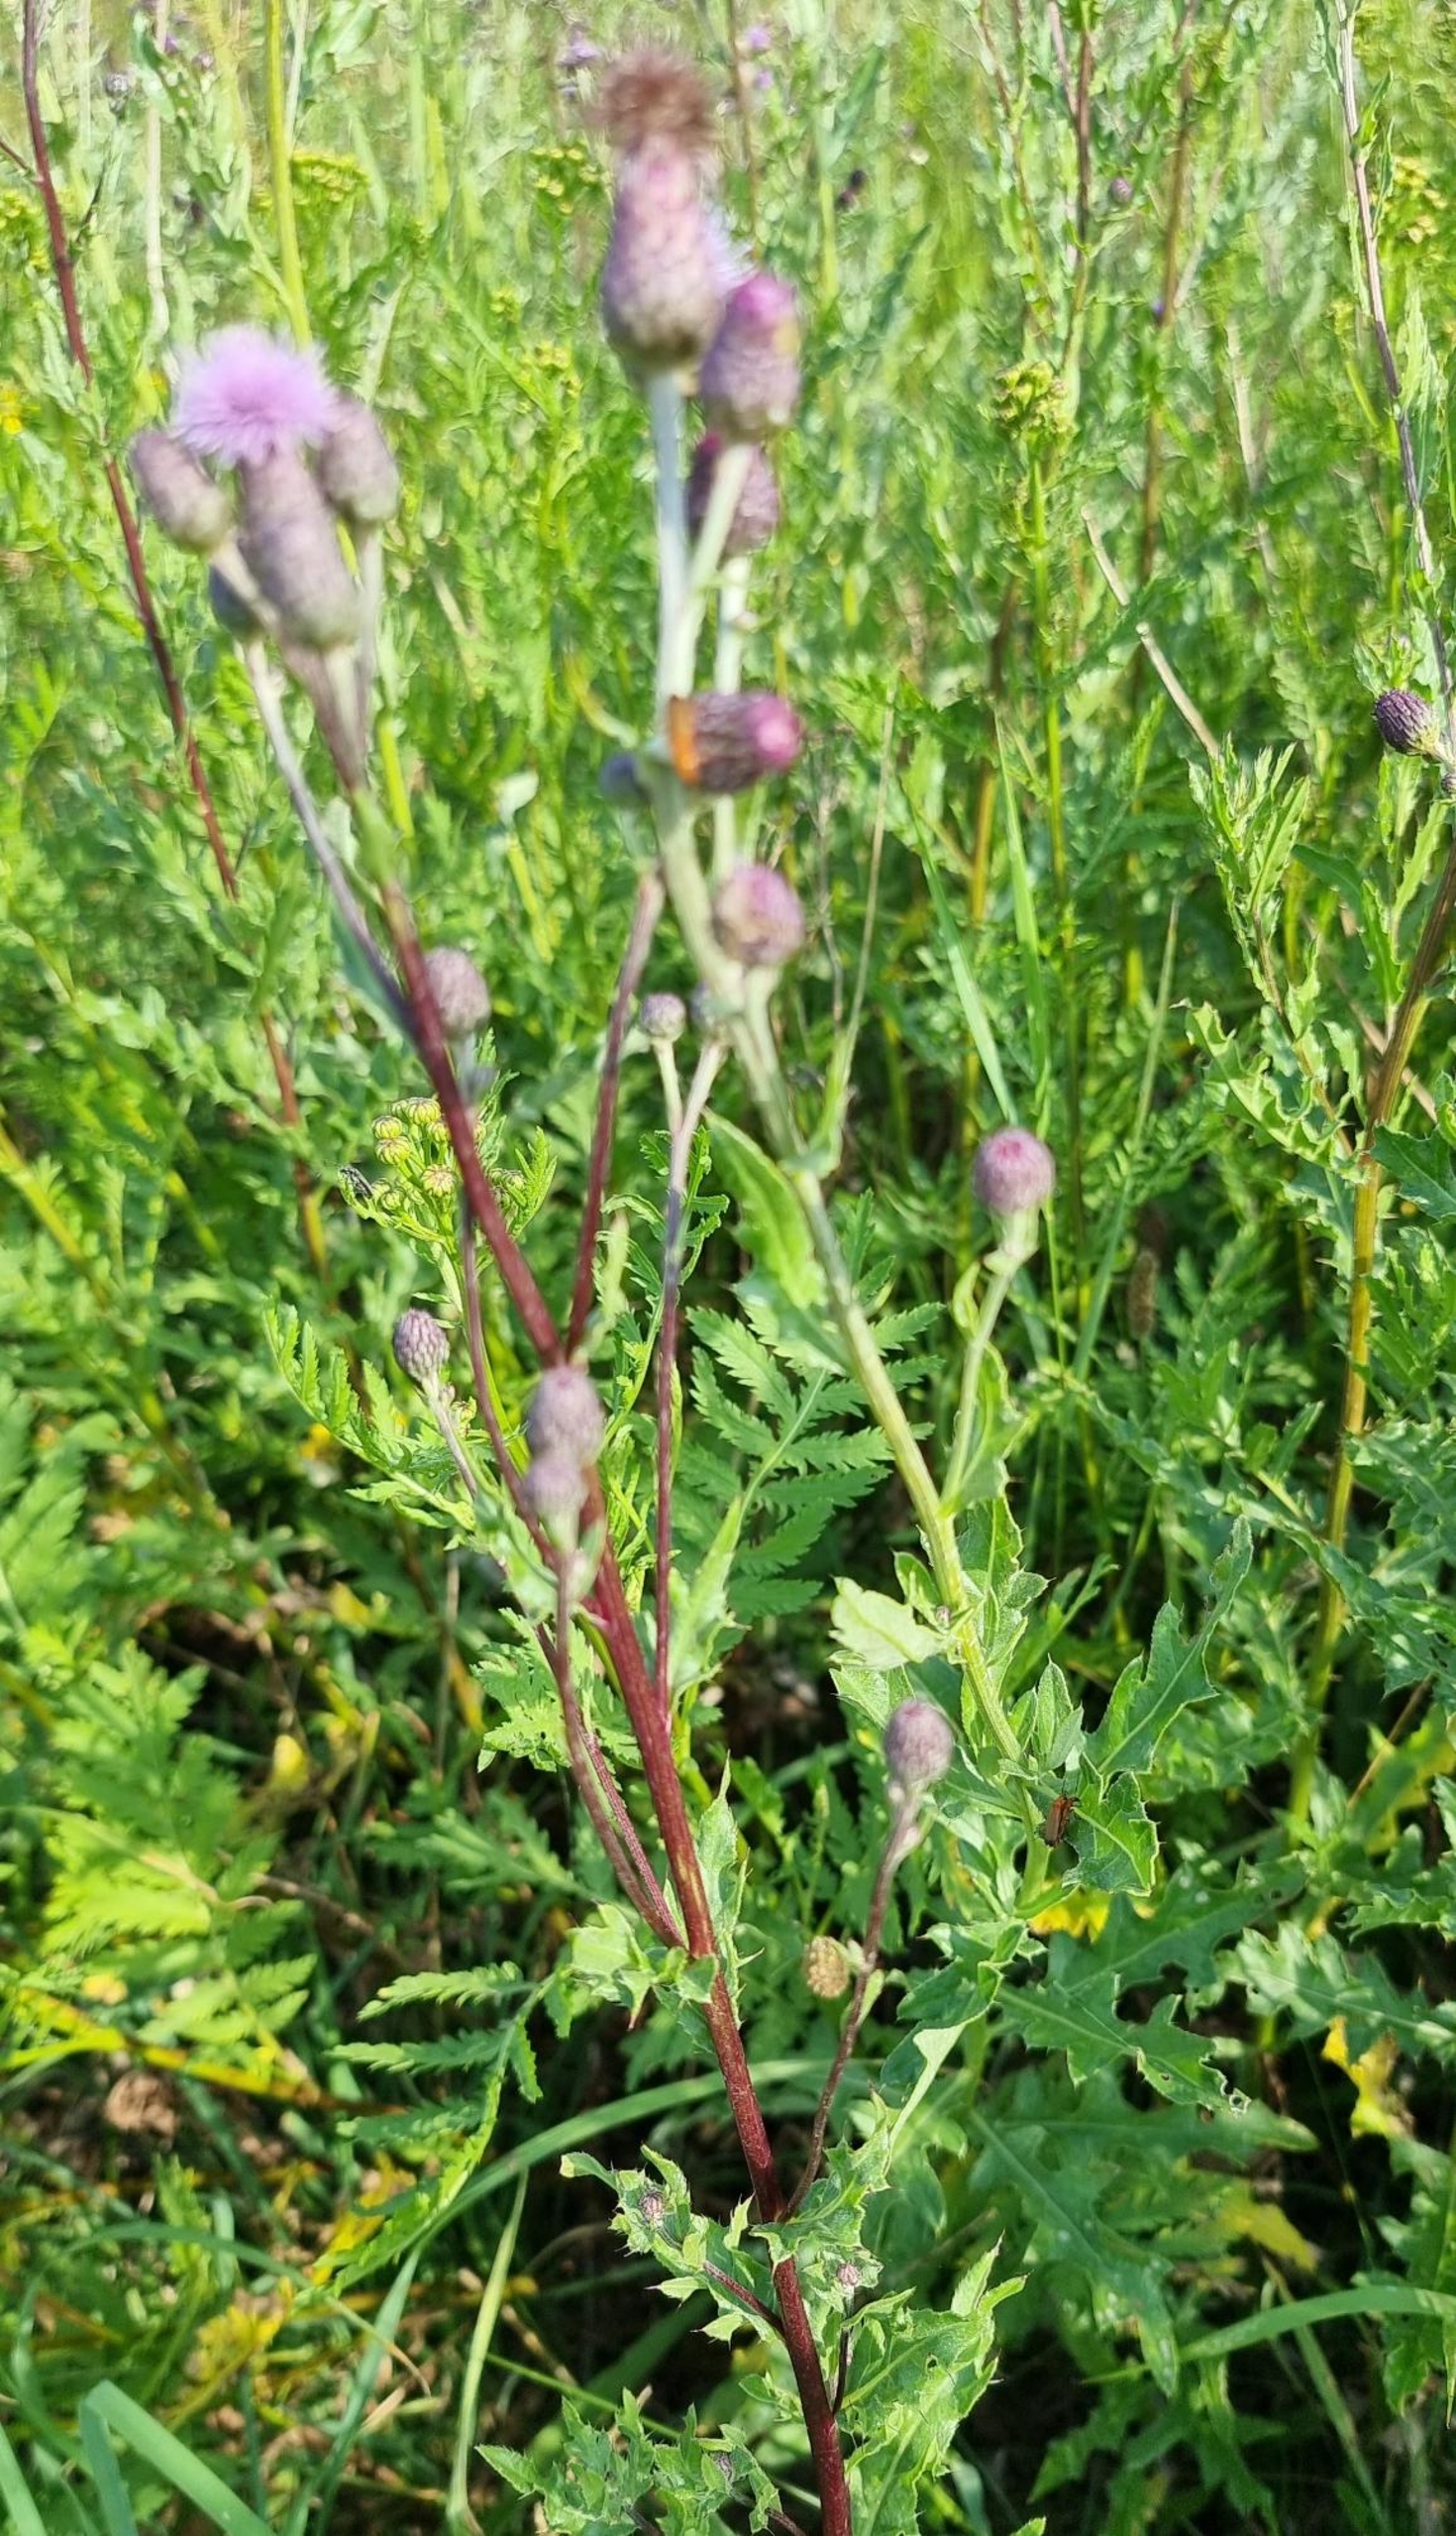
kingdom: Plantae
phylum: Tracheophyta
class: Magnoliopsida
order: Asterales
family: Asteraceae
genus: Cirsium
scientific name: Cirsium arvense
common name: Ager-tidsel
